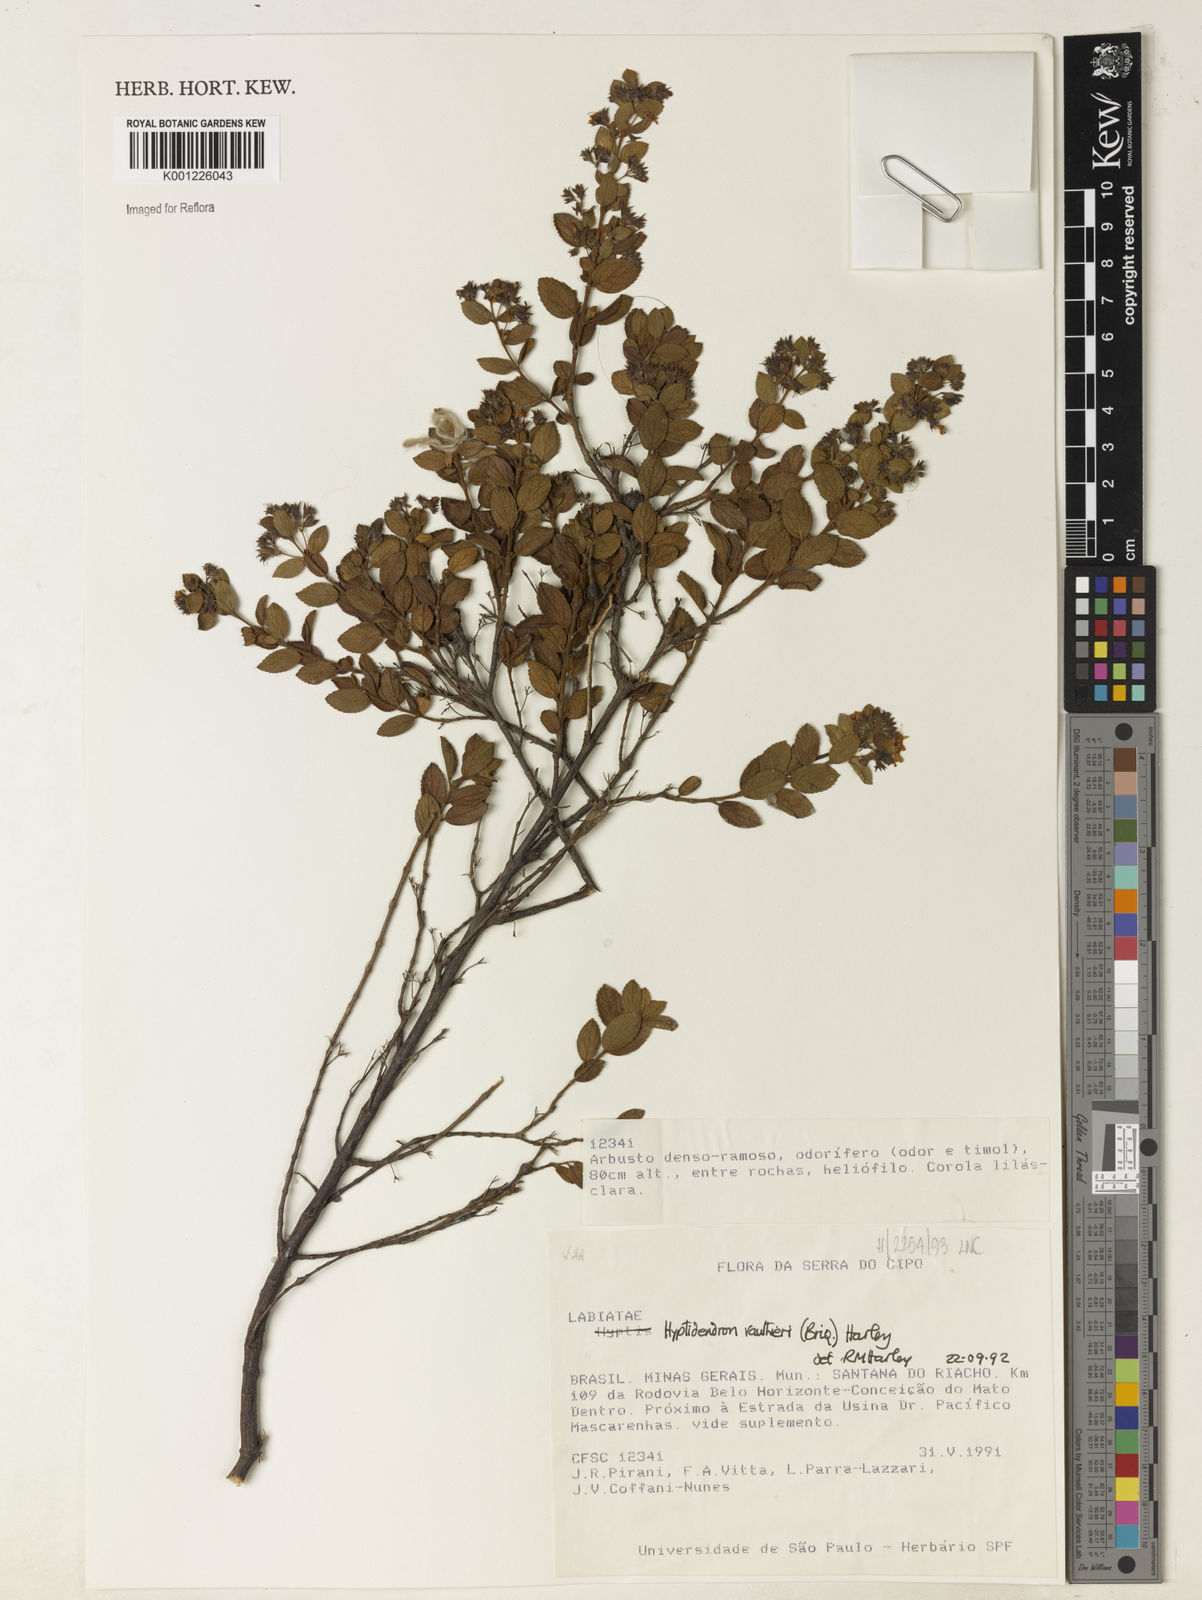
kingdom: Plantae
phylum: Tracheophyta
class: Magnoliopsida
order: Lamiales
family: Lamiaceae
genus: Hyptidendron
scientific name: Hyptidendron vauthieri
